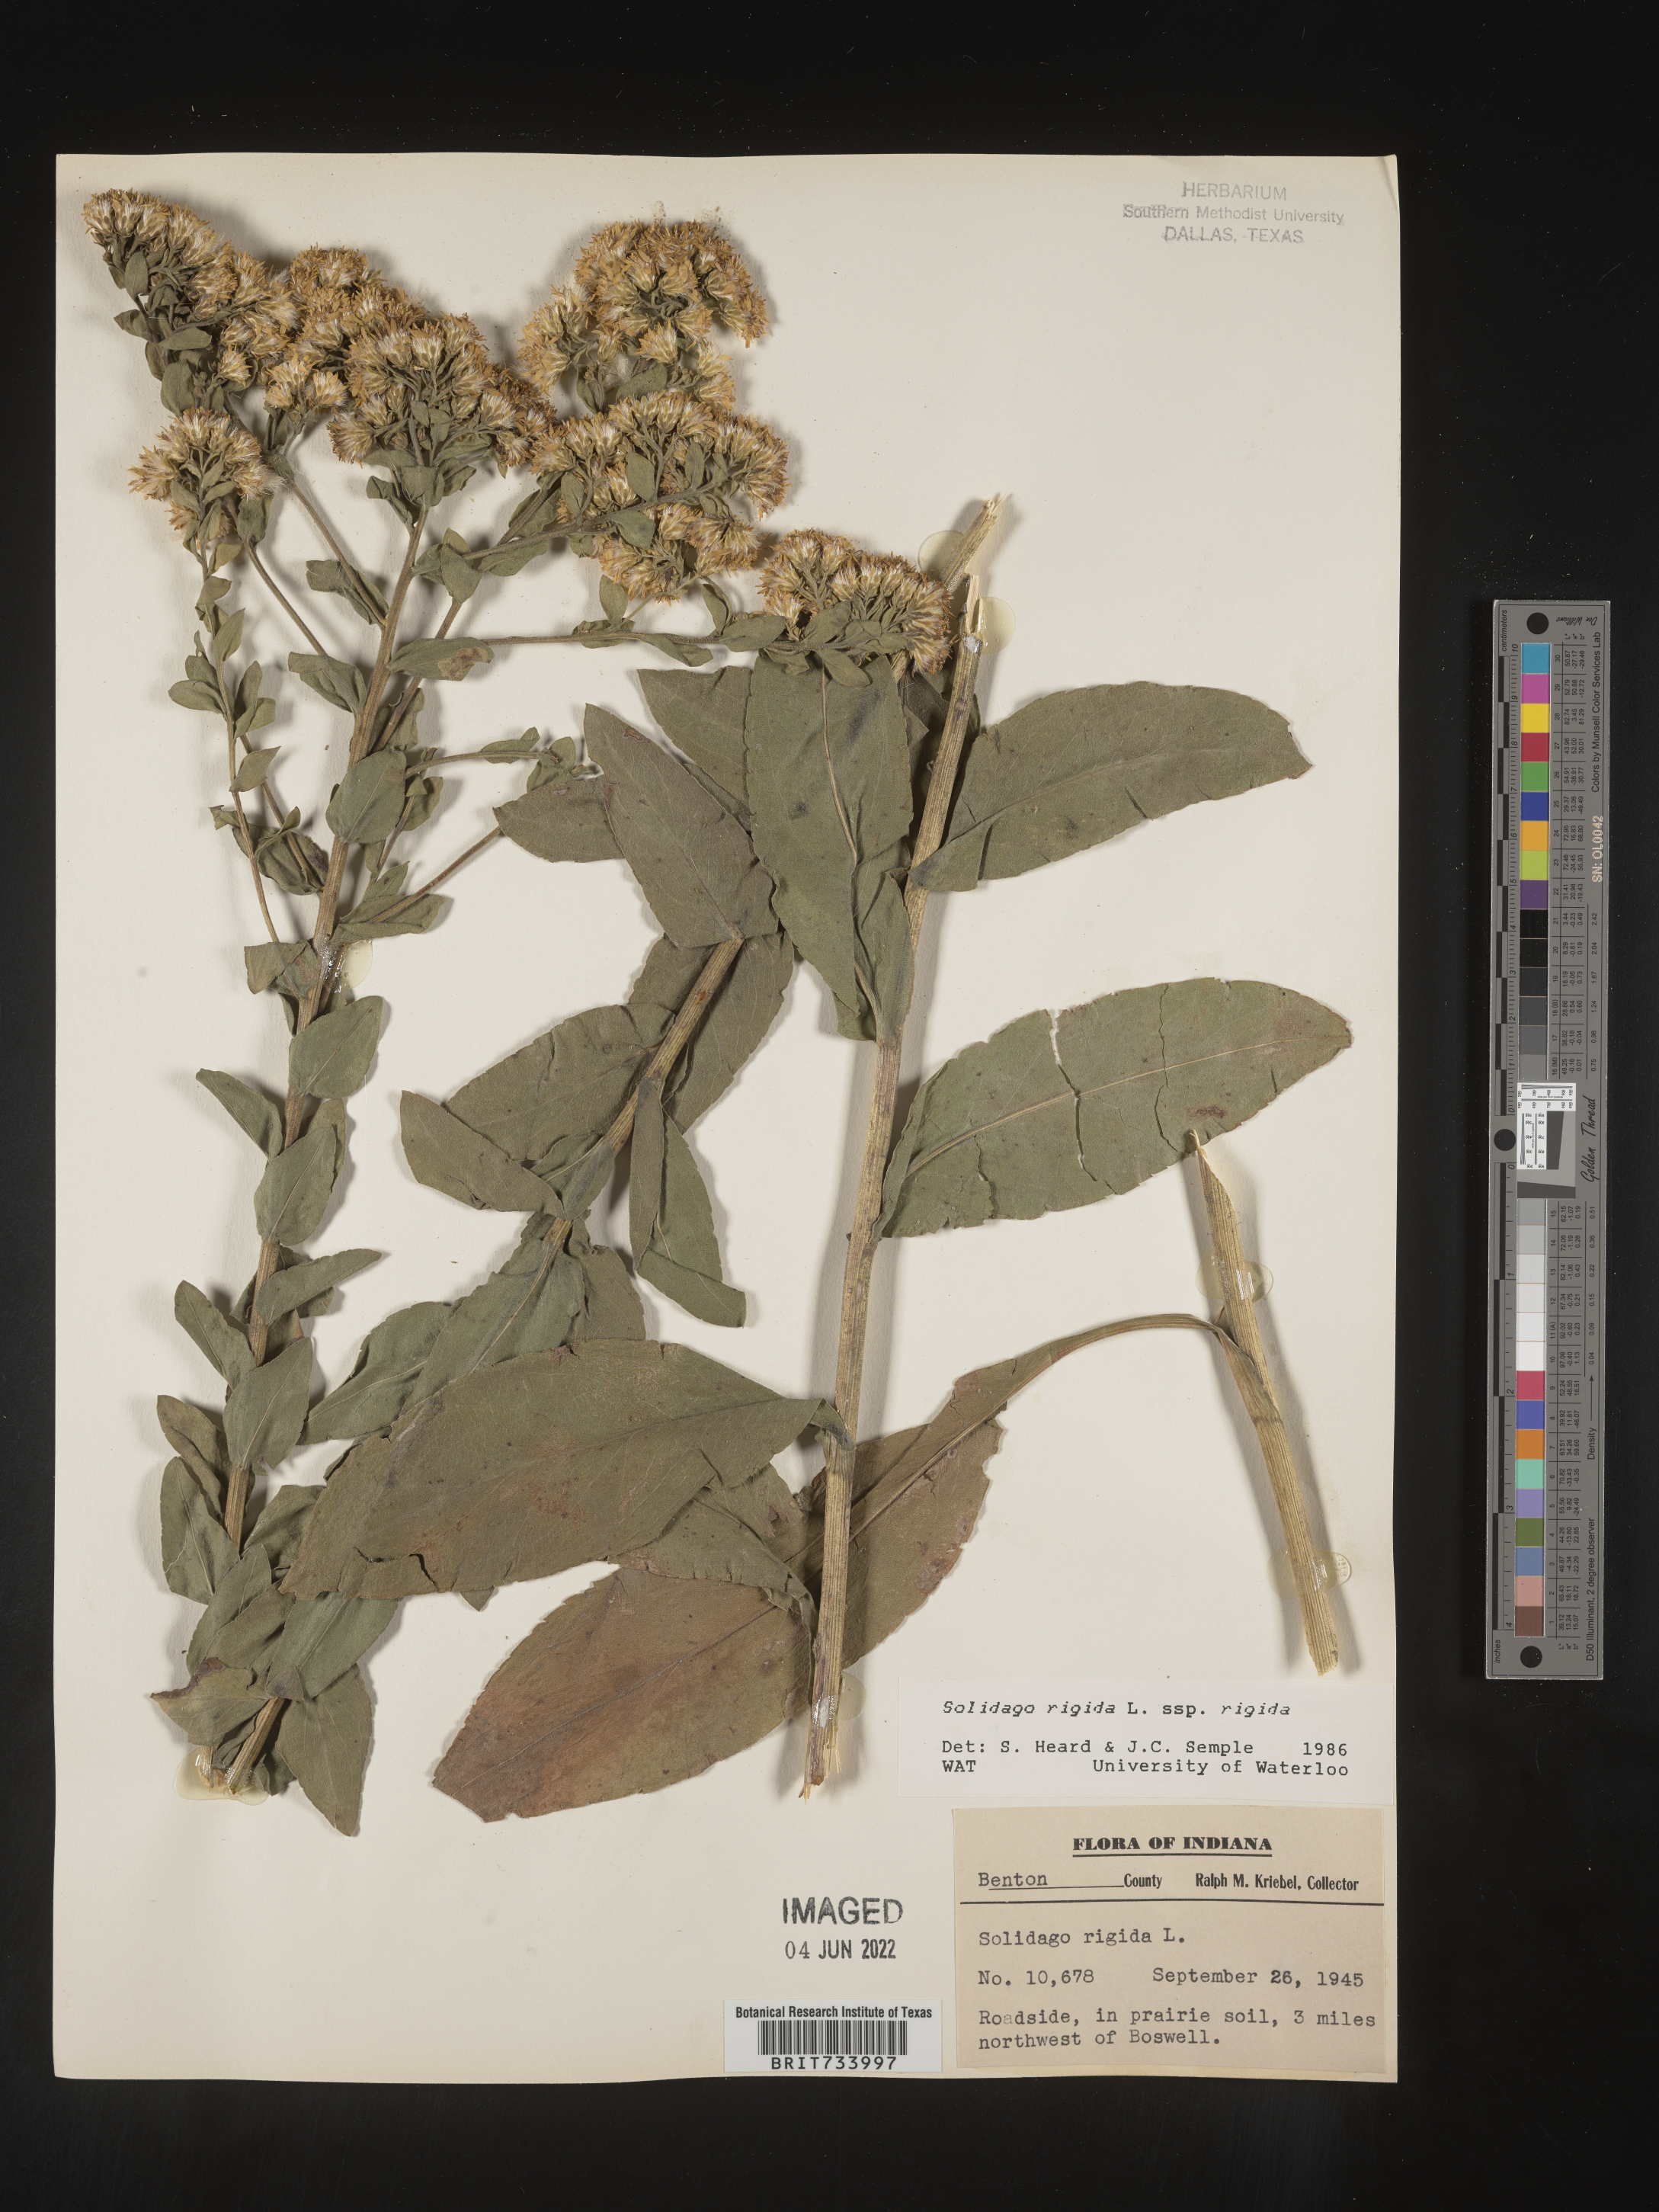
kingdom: Plantae
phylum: Tracheophyta
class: Magnoliopsida
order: Asterales
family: Asteraceae
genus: Solidago
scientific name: Solidago rigida
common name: Rigid goldenrod
